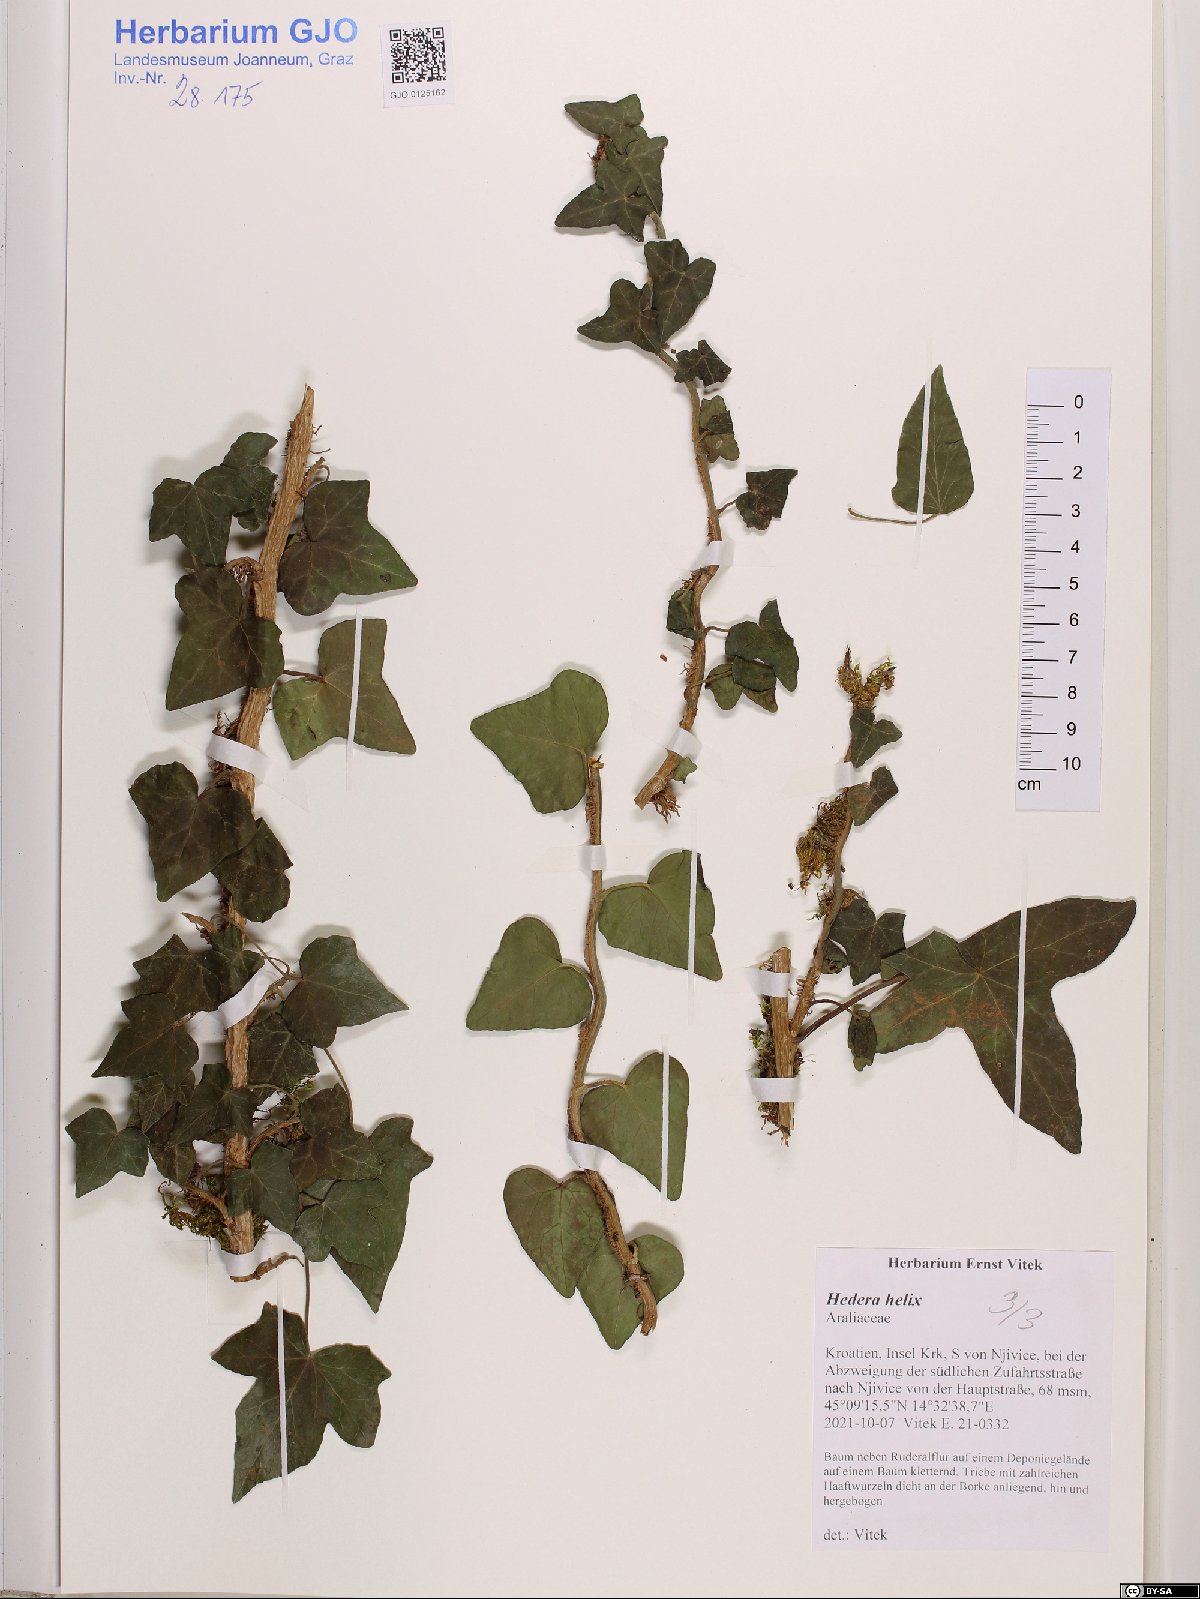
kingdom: Plantae
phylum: Tracheophyta
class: Magnoliopsida
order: Apiales
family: Araliaceae
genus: Hedera
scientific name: Hedera helix
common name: Ivy
